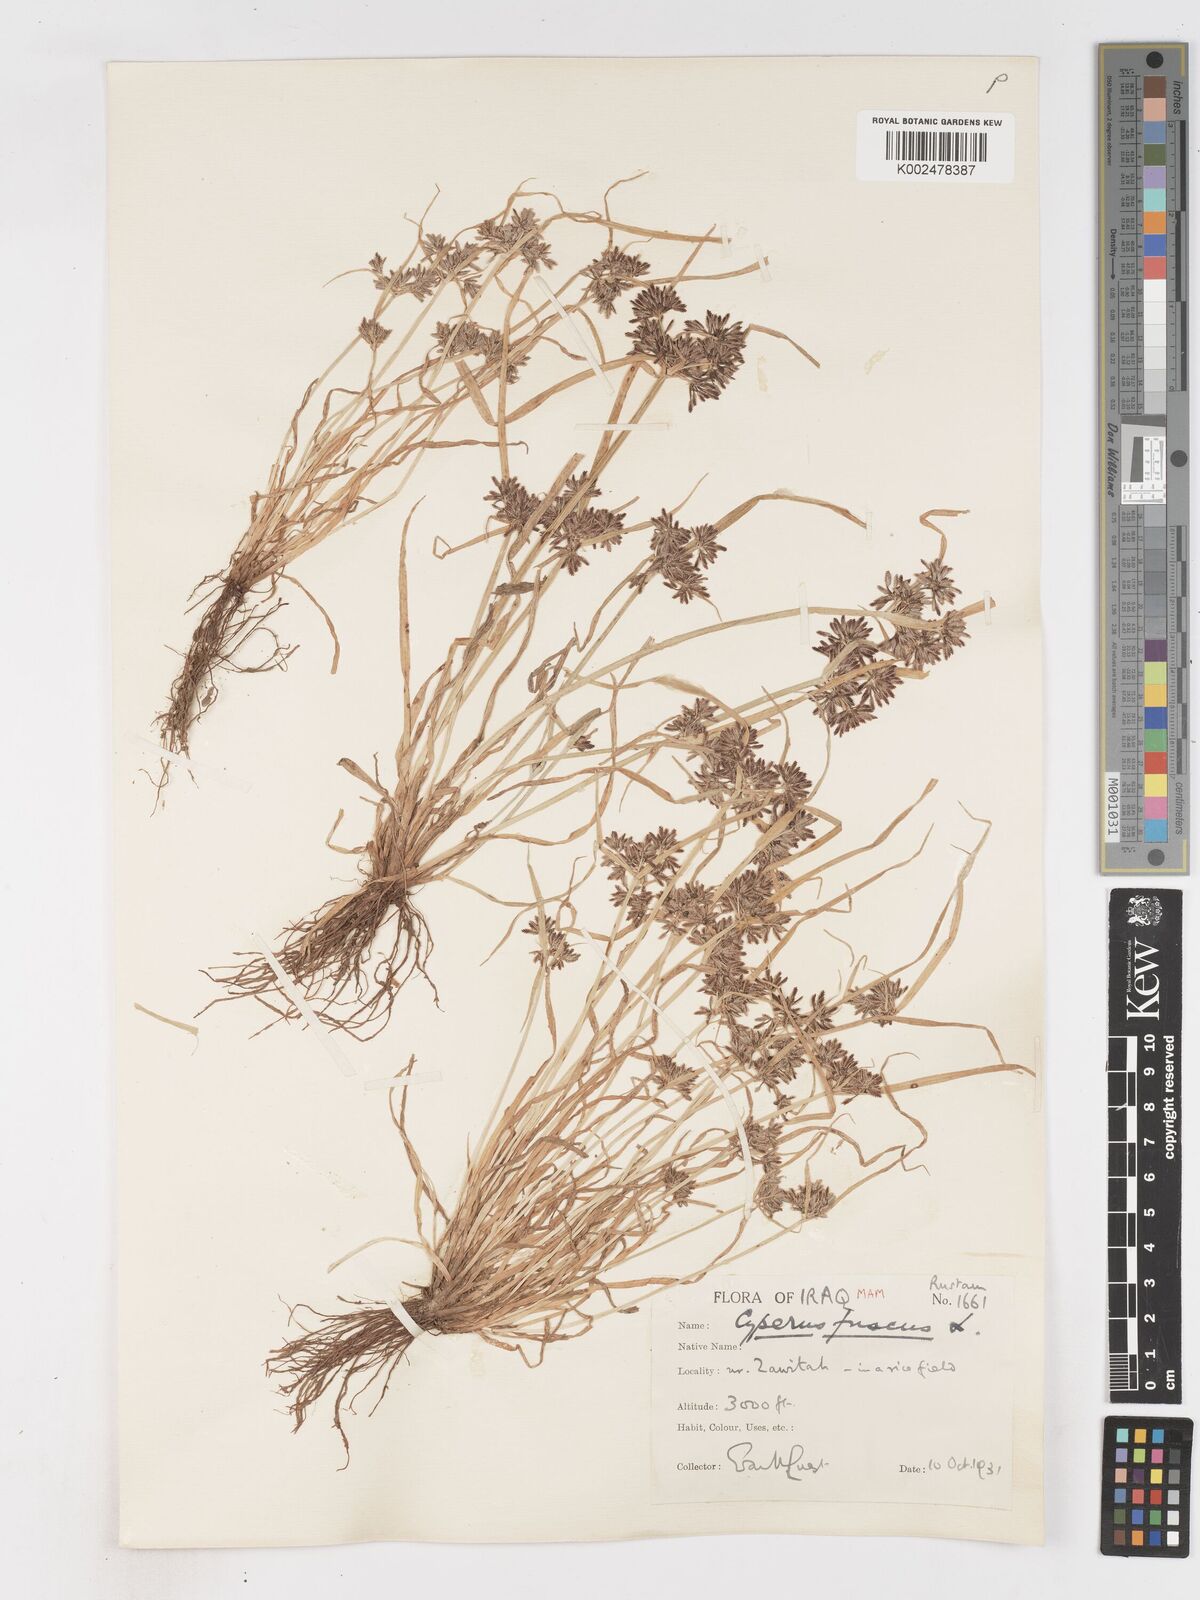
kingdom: Plantae
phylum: Tracheophyta
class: Liliopsida
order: Poales
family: Cyperaceae
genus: Cyperus
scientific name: Cyperus fuscus
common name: Brown galingale
